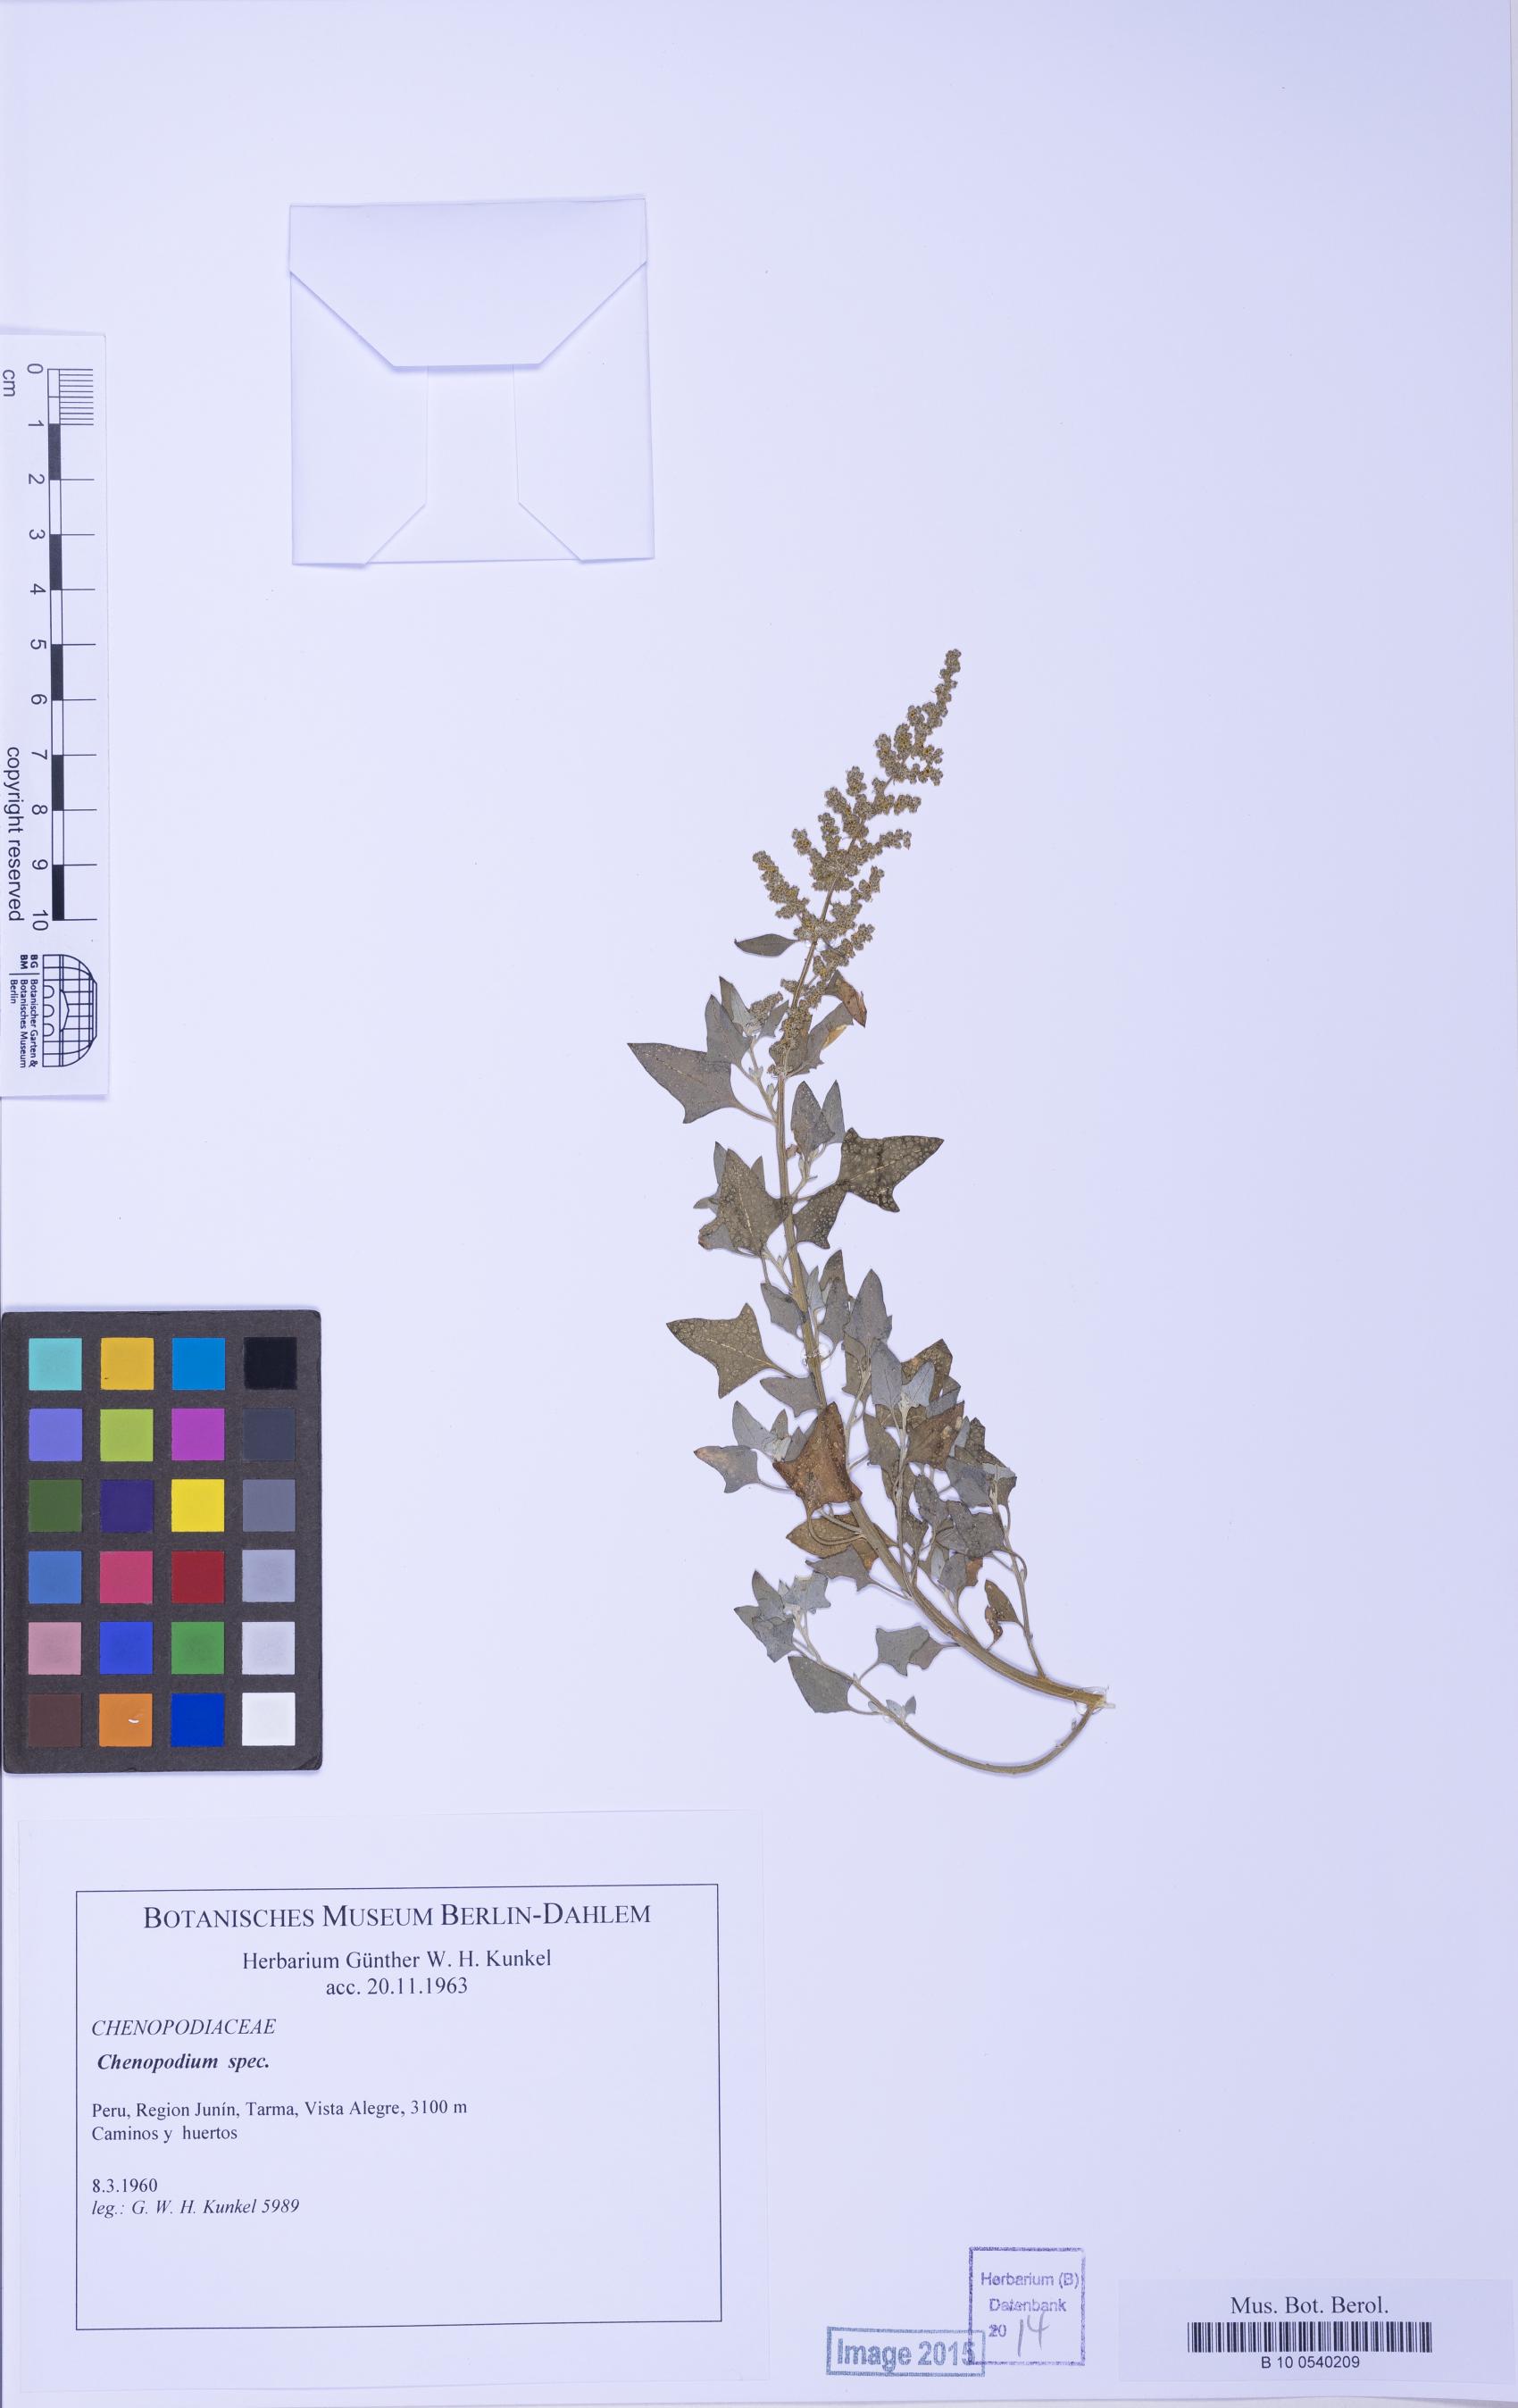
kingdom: Plantae
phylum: Tracheophyta
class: Magnoliopsida
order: Caryophyllales
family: Amaranthaceae
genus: Chenopodium
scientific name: Chenopodium
